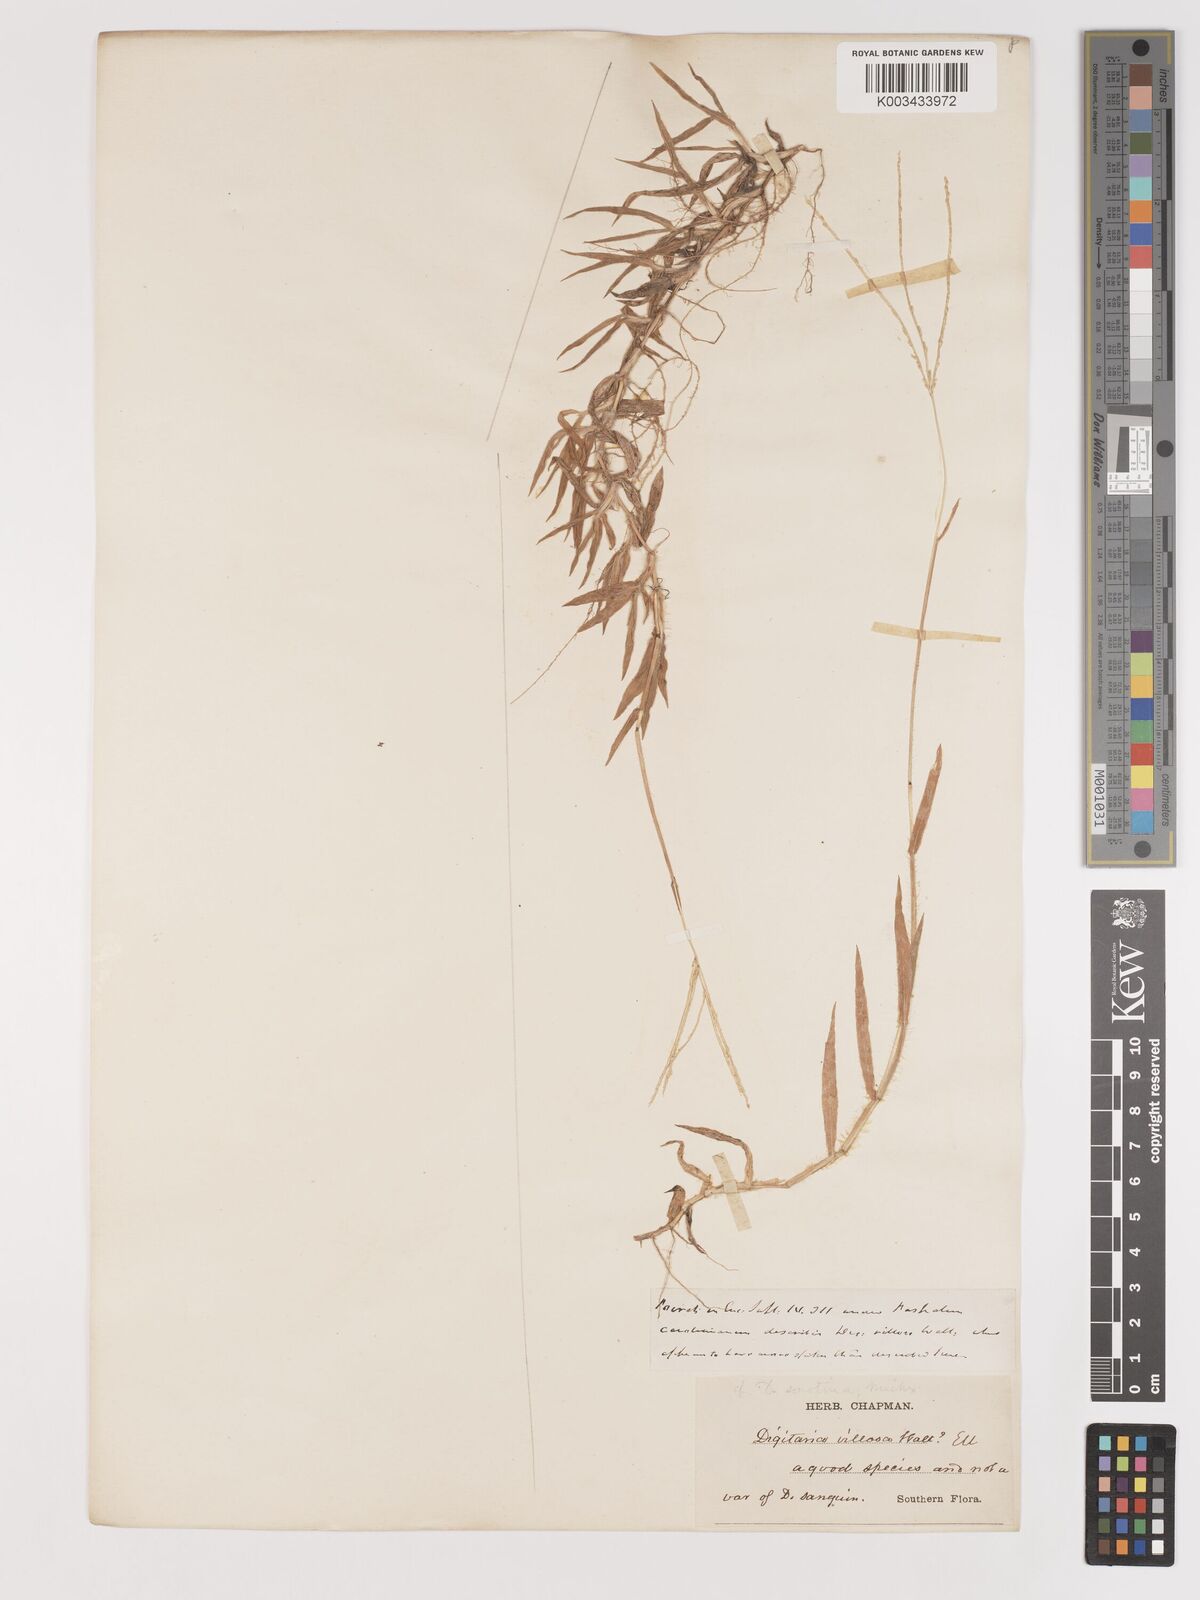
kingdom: Plantae
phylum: Tracheophyta
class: Liliopsida
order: Poales
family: Poaceae
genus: Digitaria
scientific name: Digitaria serotina
